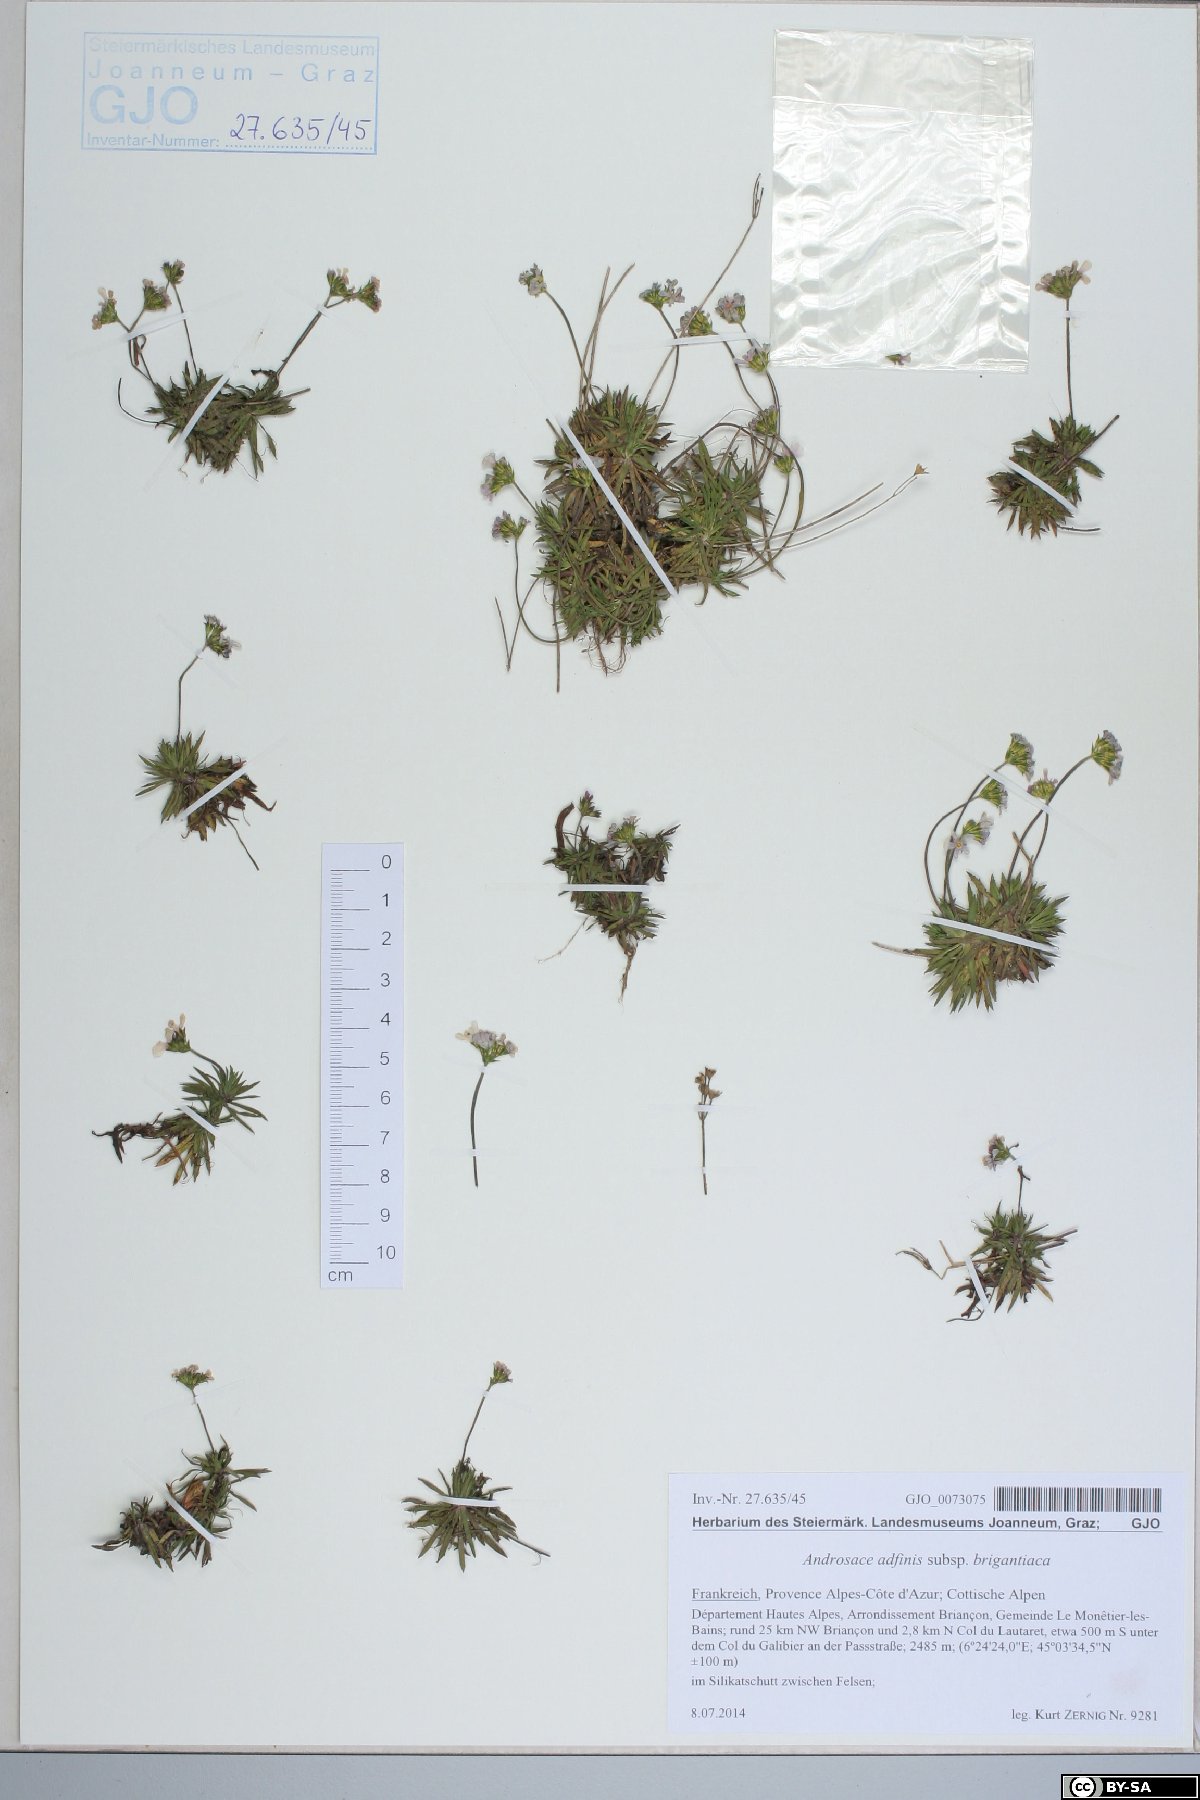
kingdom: Plantae
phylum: Tracheophyta
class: Magnoliopsida
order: Ericales
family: Primulaceae
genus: Androsace
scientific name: Androsace adfinis
